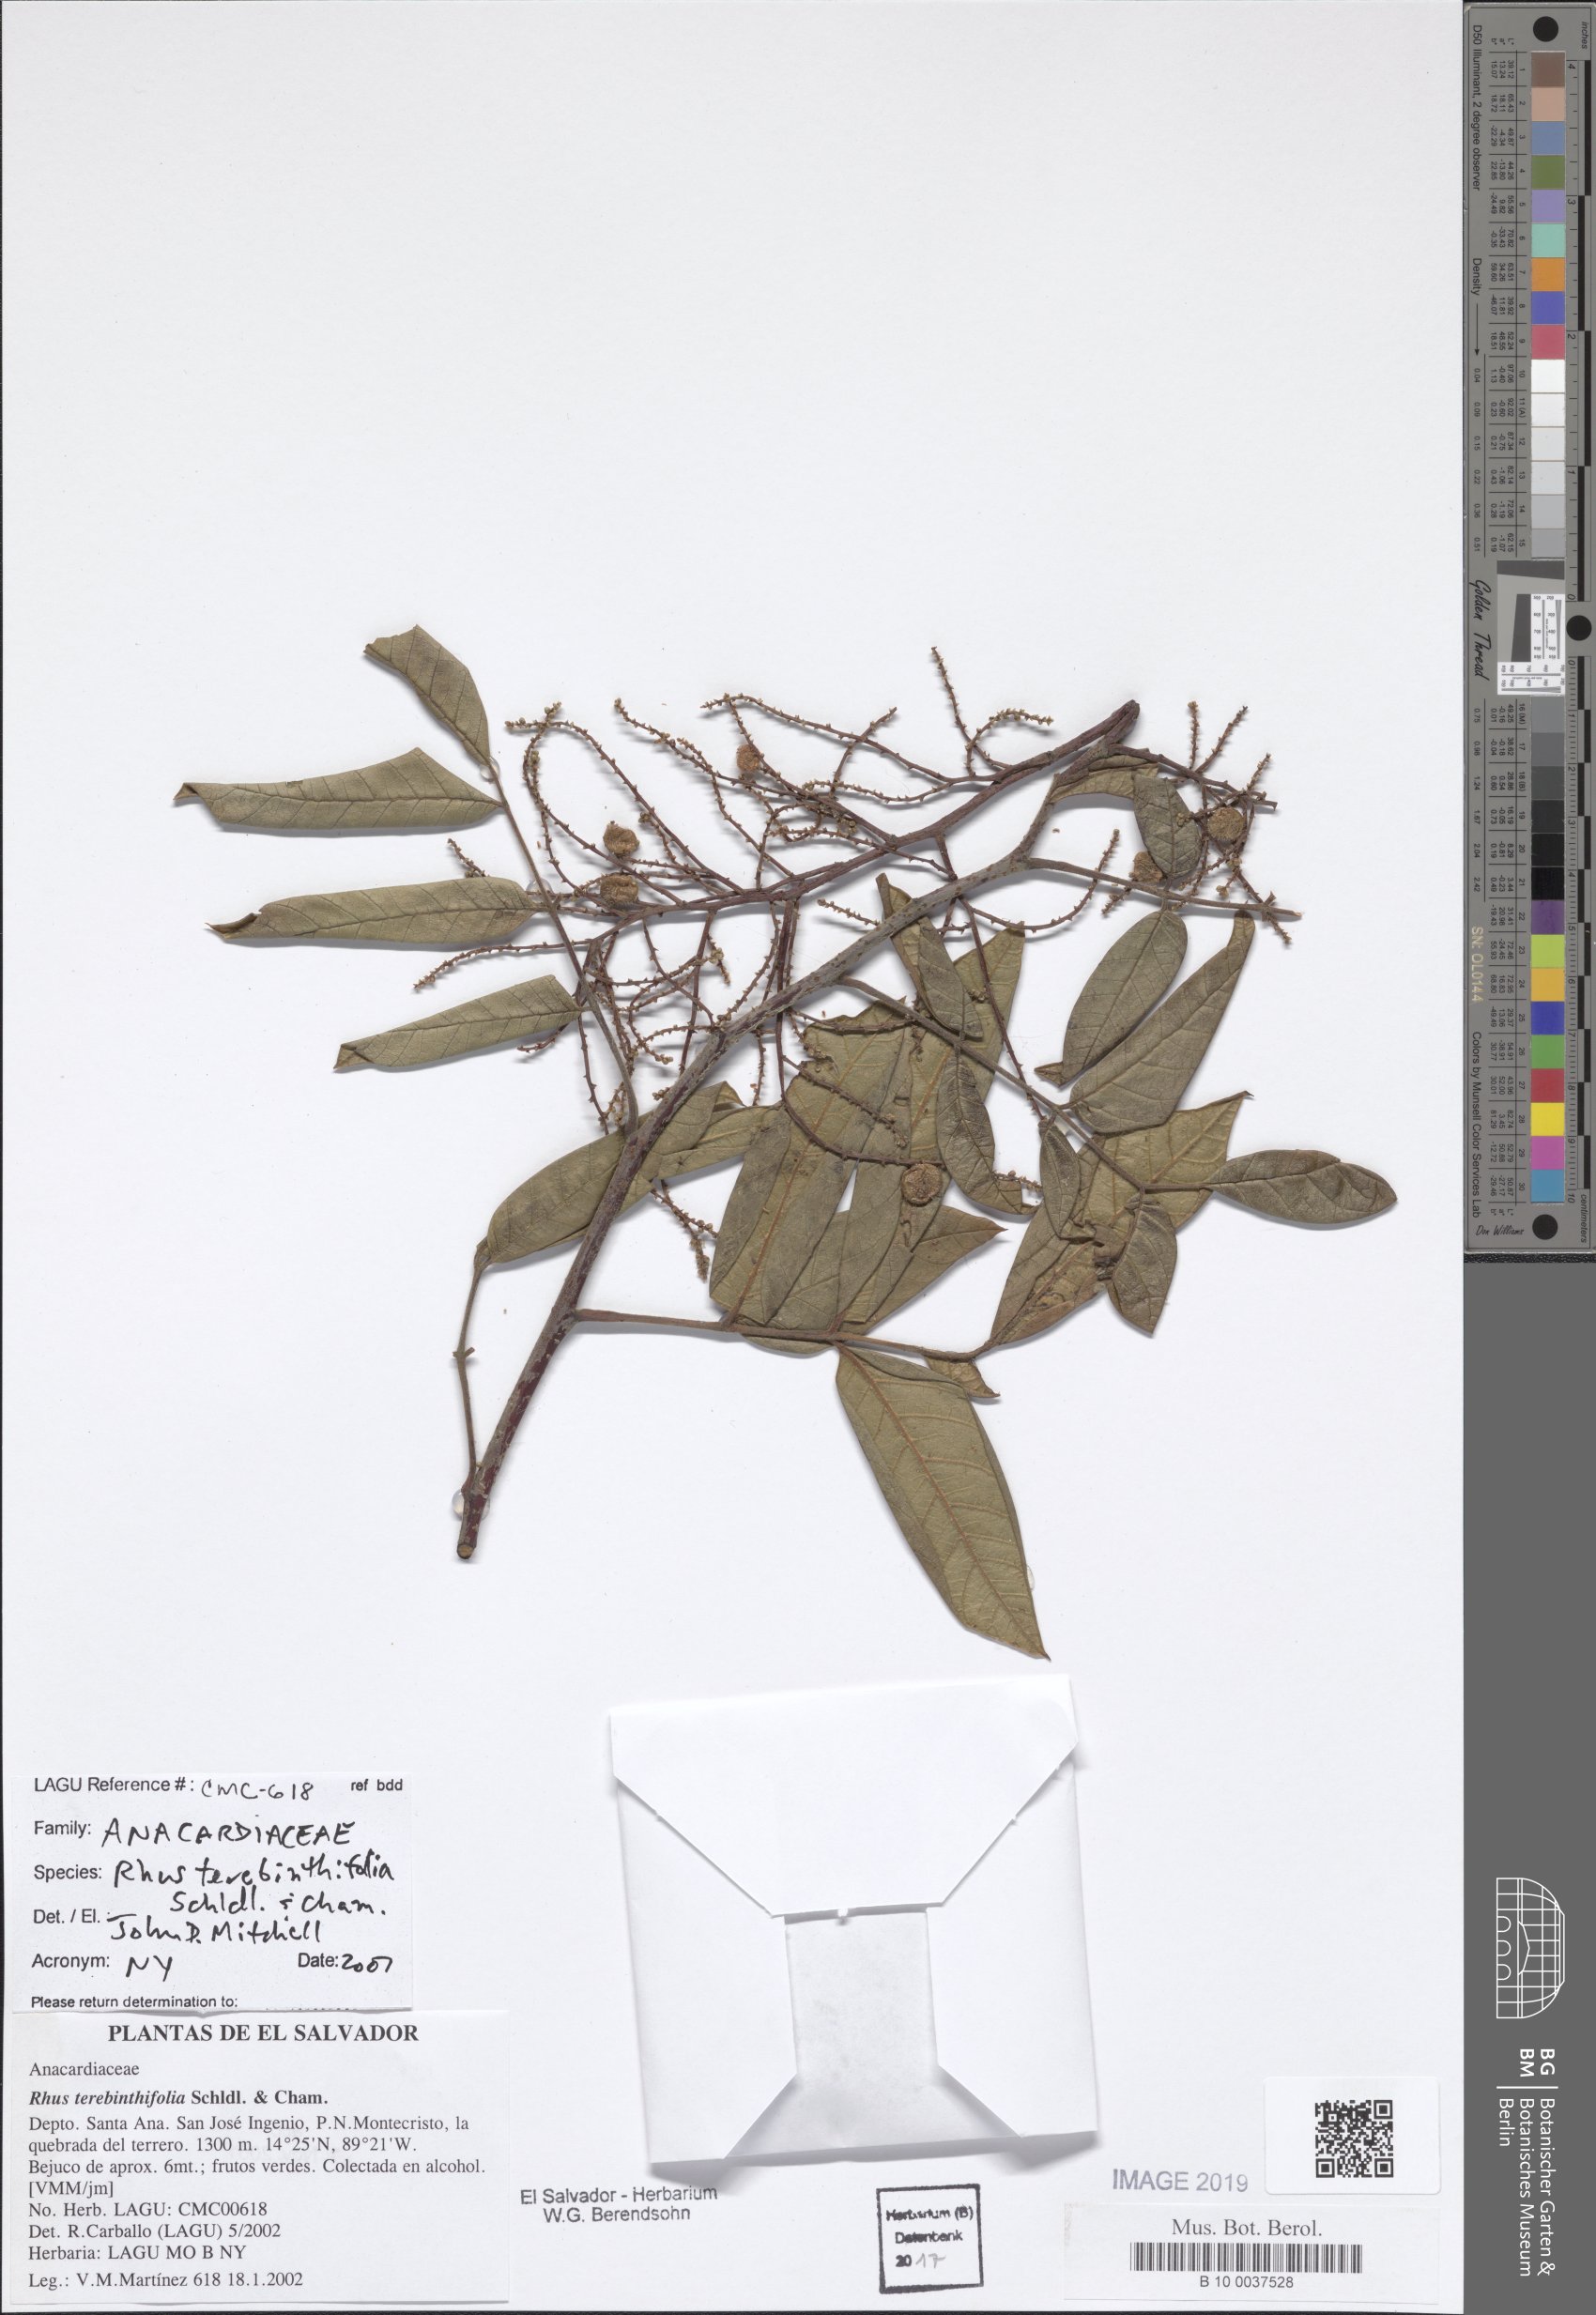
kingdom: Plantae
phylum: Tracheophyta
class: Magnoliopsida
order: Sapindales
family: Anacardiaceae
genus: Rhus
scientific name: Rhus terebinthifolia
